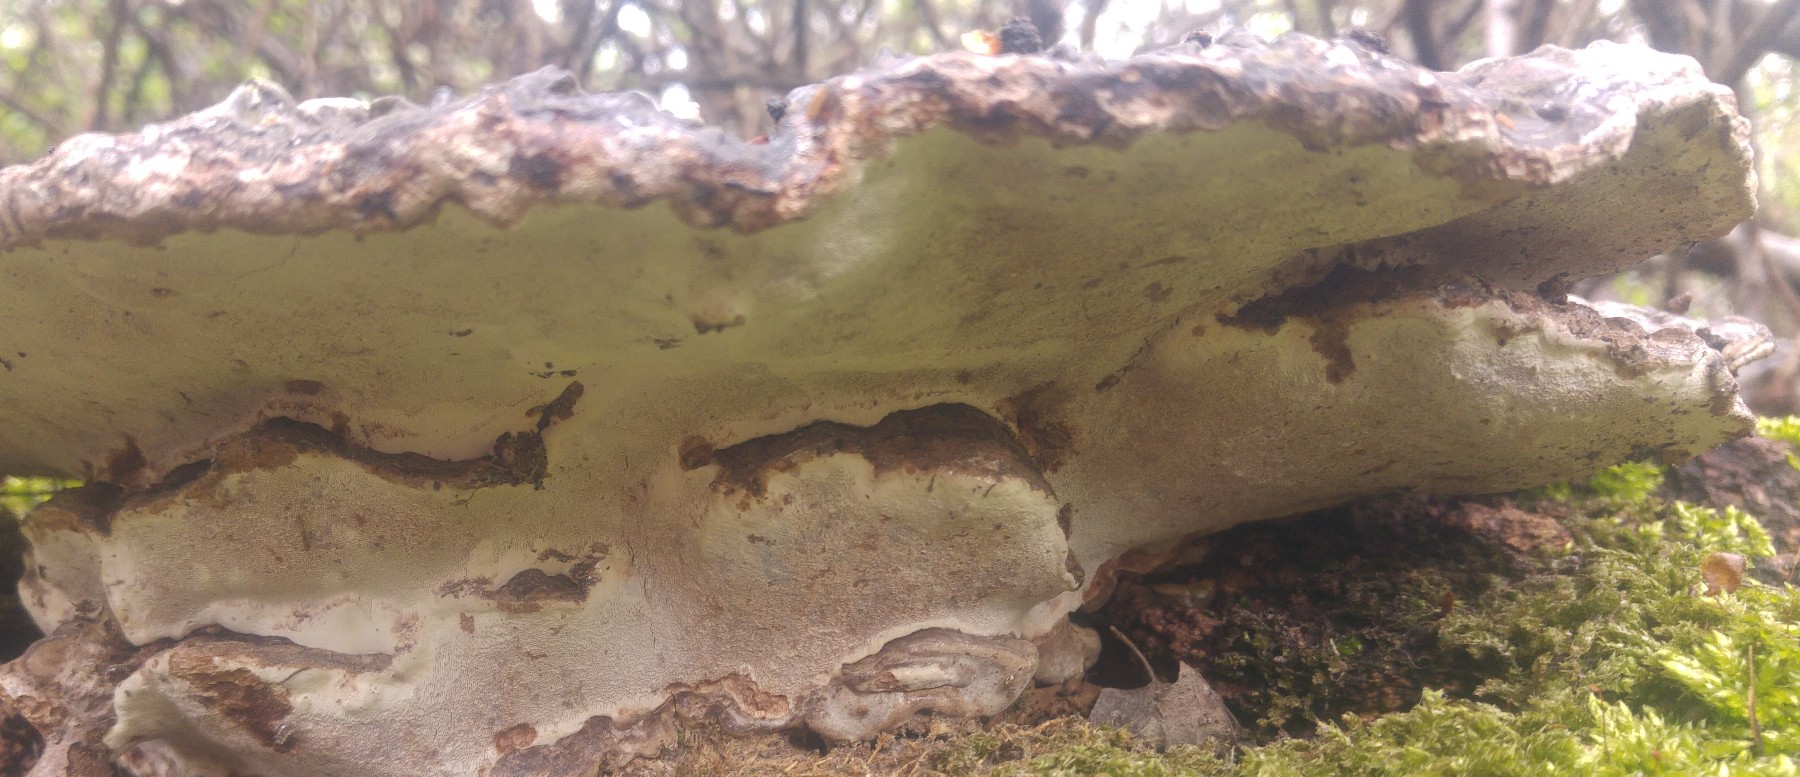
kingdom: Fungi
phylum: Basidiomycota
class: Agaricomycetes
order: Polyporales
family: Polyporaceae
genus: Ganoderma
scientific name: Ganoderma applanatum
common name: flad lakporesvamp
